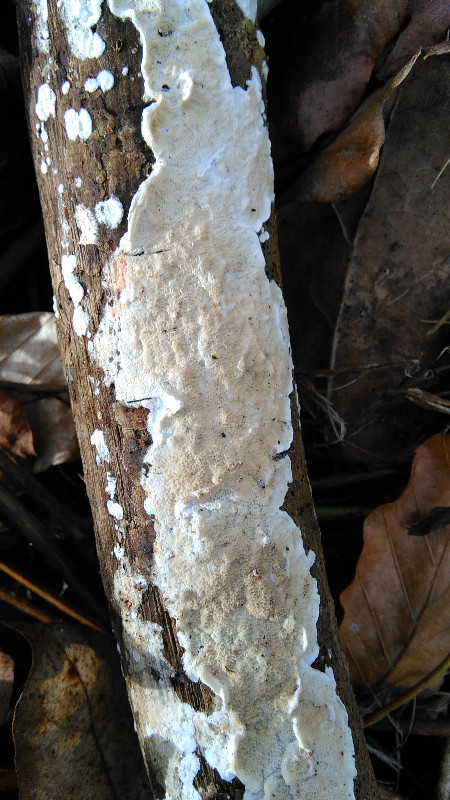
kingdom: Fungi
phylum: Basidiomycota
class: Agaricomycetes
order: Polyporales
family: Irpicaceae
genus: Byssomerulius
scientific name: Byssomerulius corium
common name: læder-åresvamp
